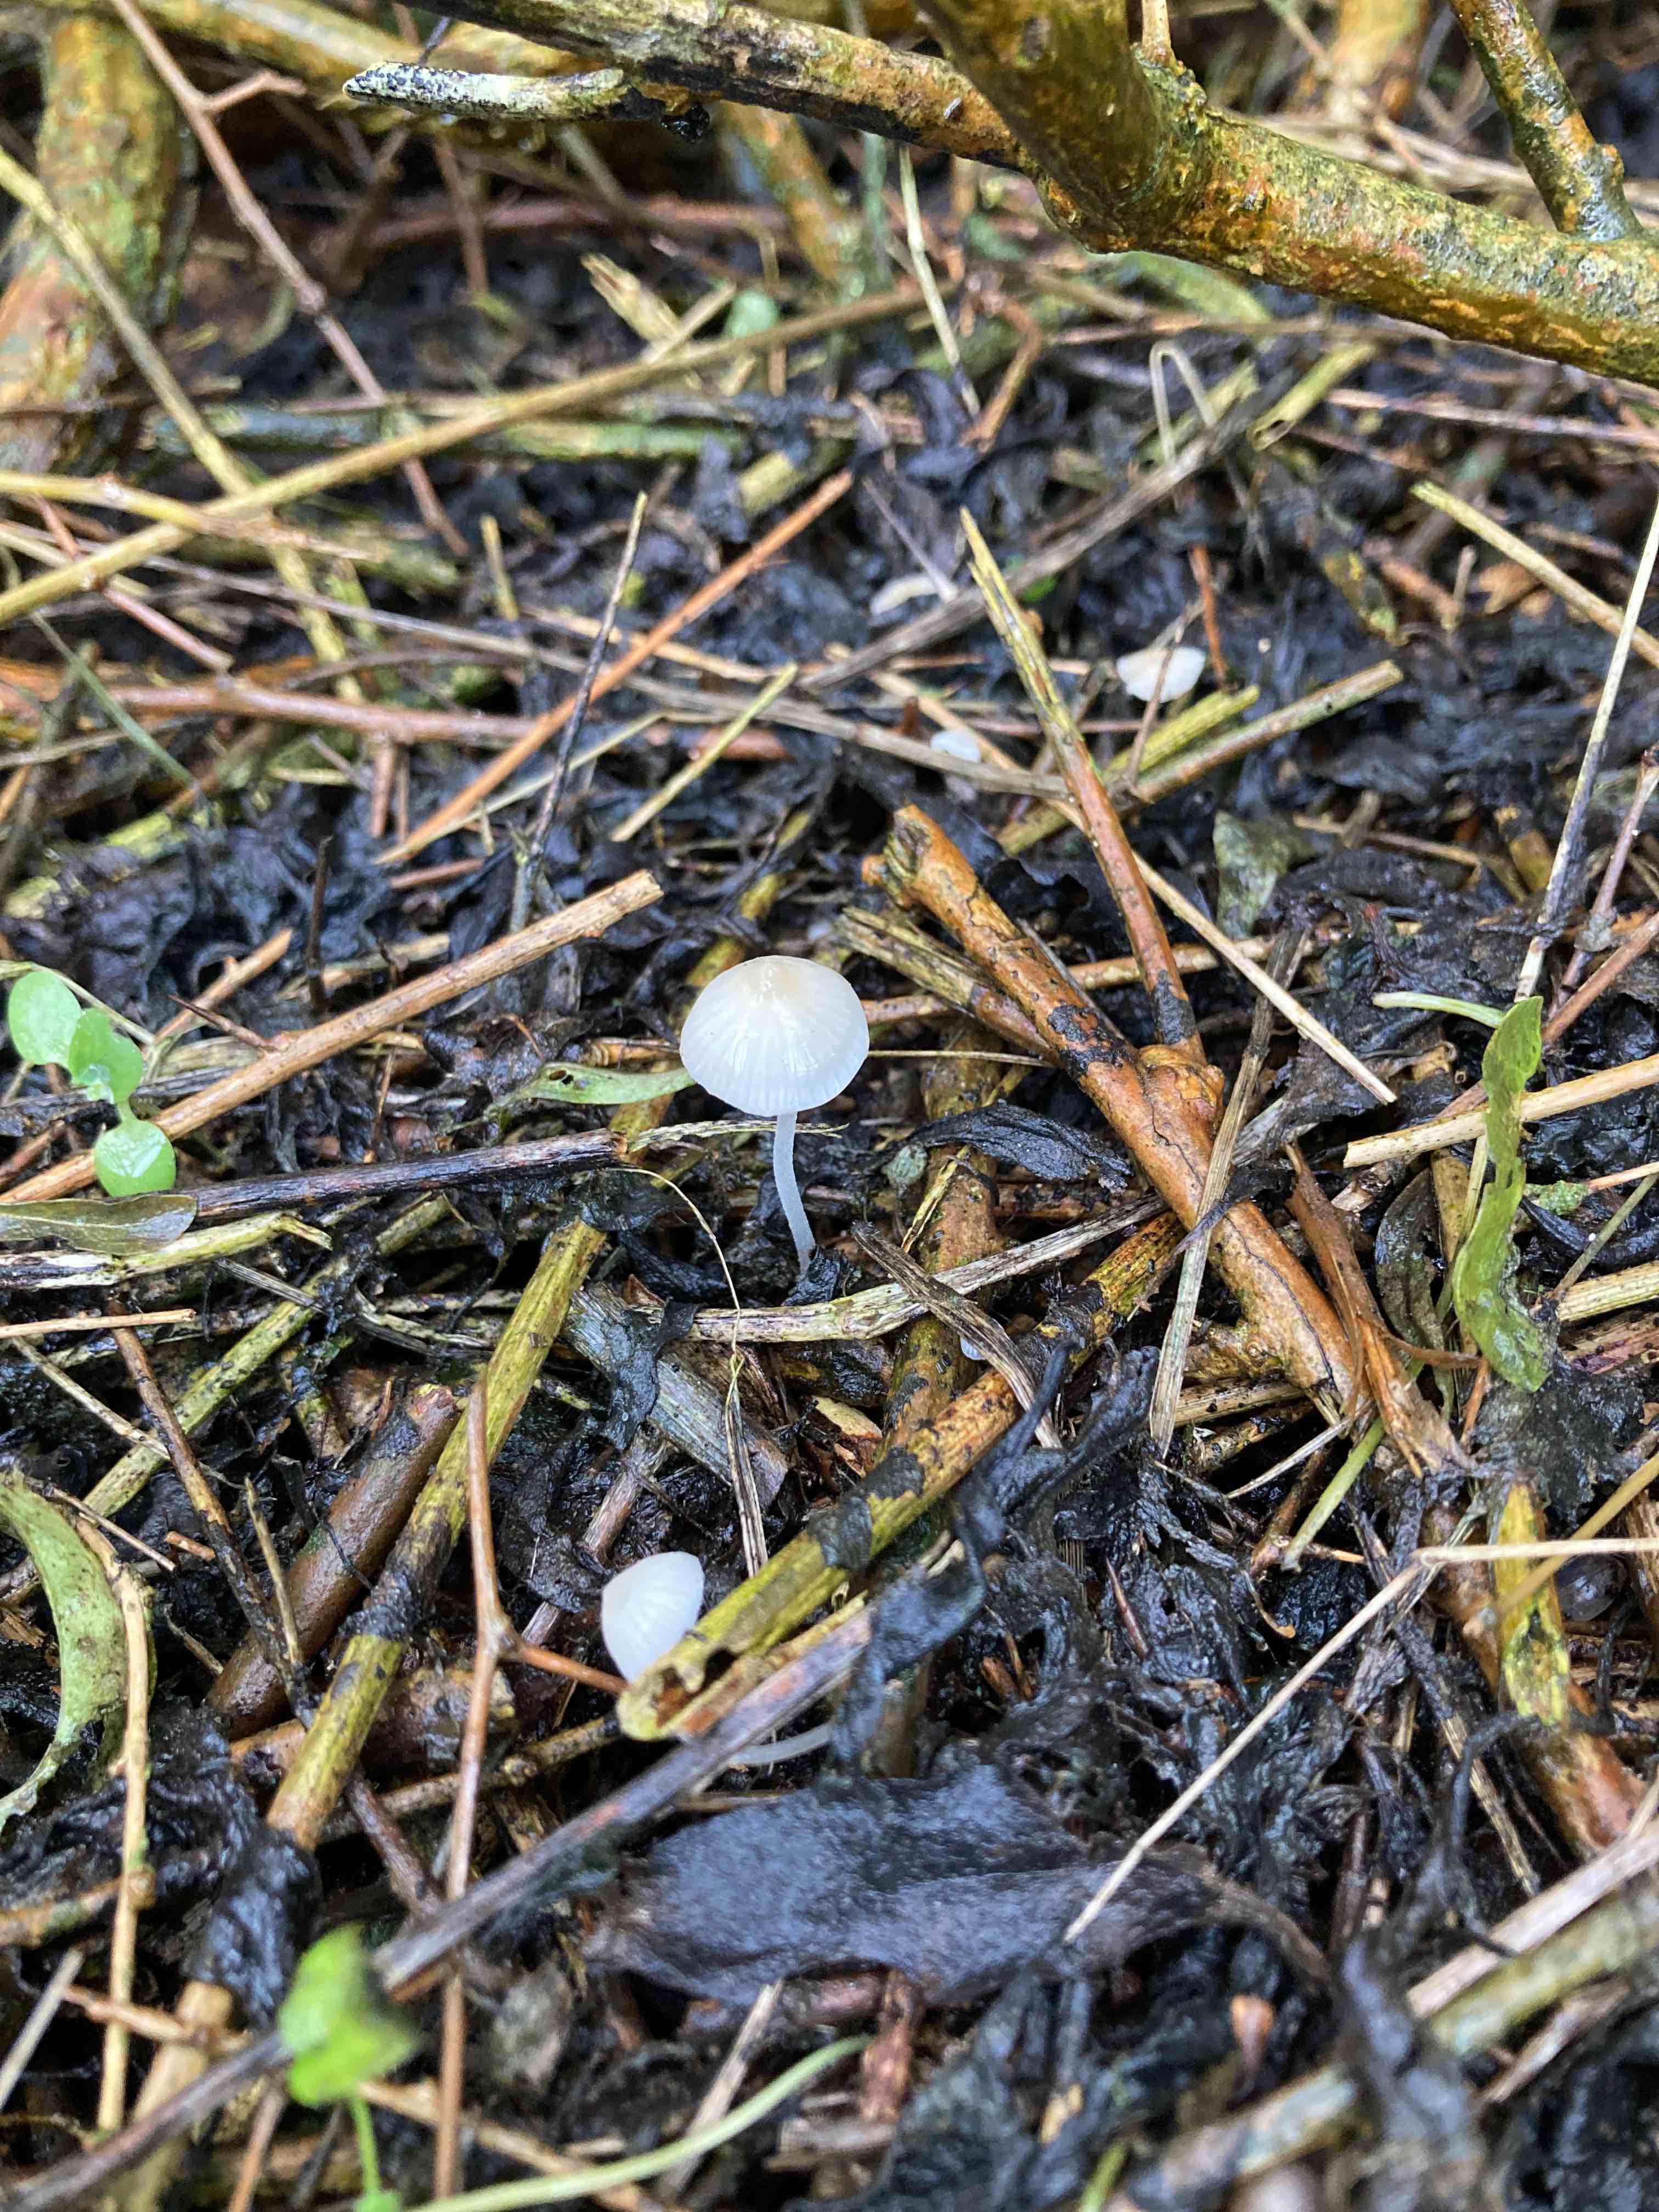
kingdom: Fungi
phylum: Basidiomycota
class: Agaricomycetes
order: Agaricales
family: Mycenaceae
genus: Atheniella
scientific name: Atheniella flavoalba
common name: gulhvid huesvamp
